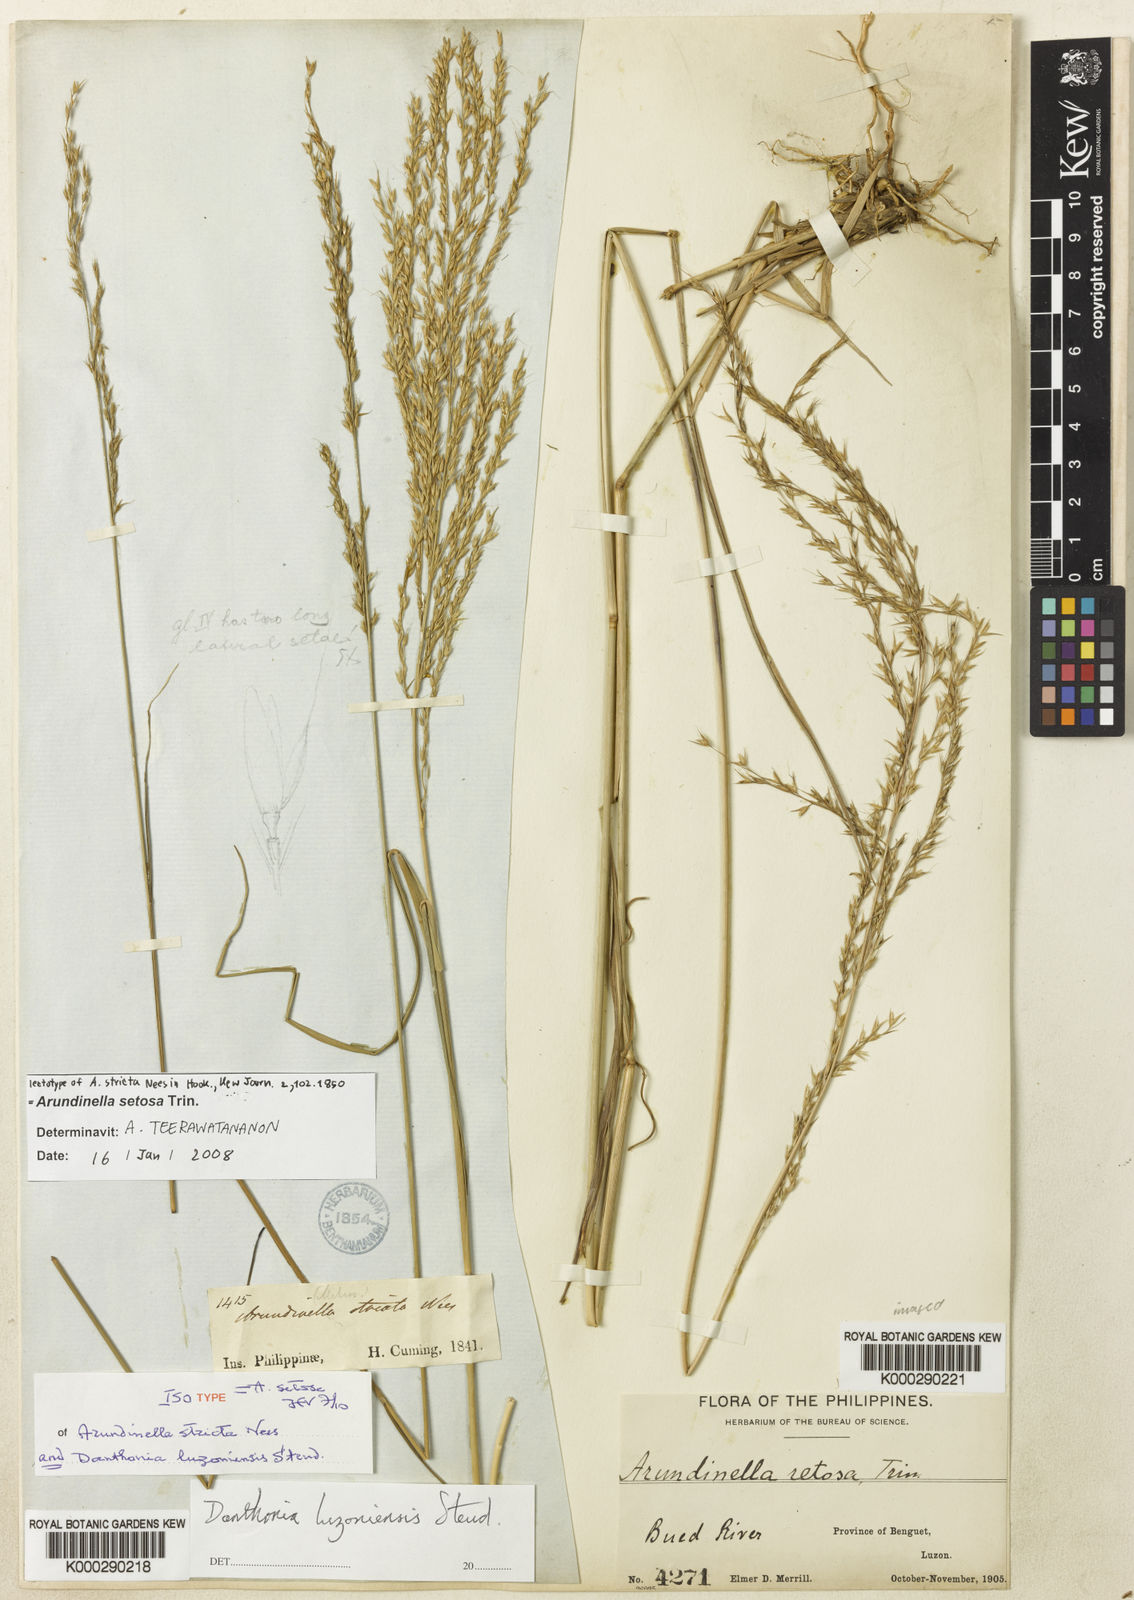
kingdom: Plantae
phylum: Tracheophyta
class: Liliopsida
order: Poales
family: Poaceae
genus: Arundinella
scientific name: Arundinella setosa
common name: Reed grass
